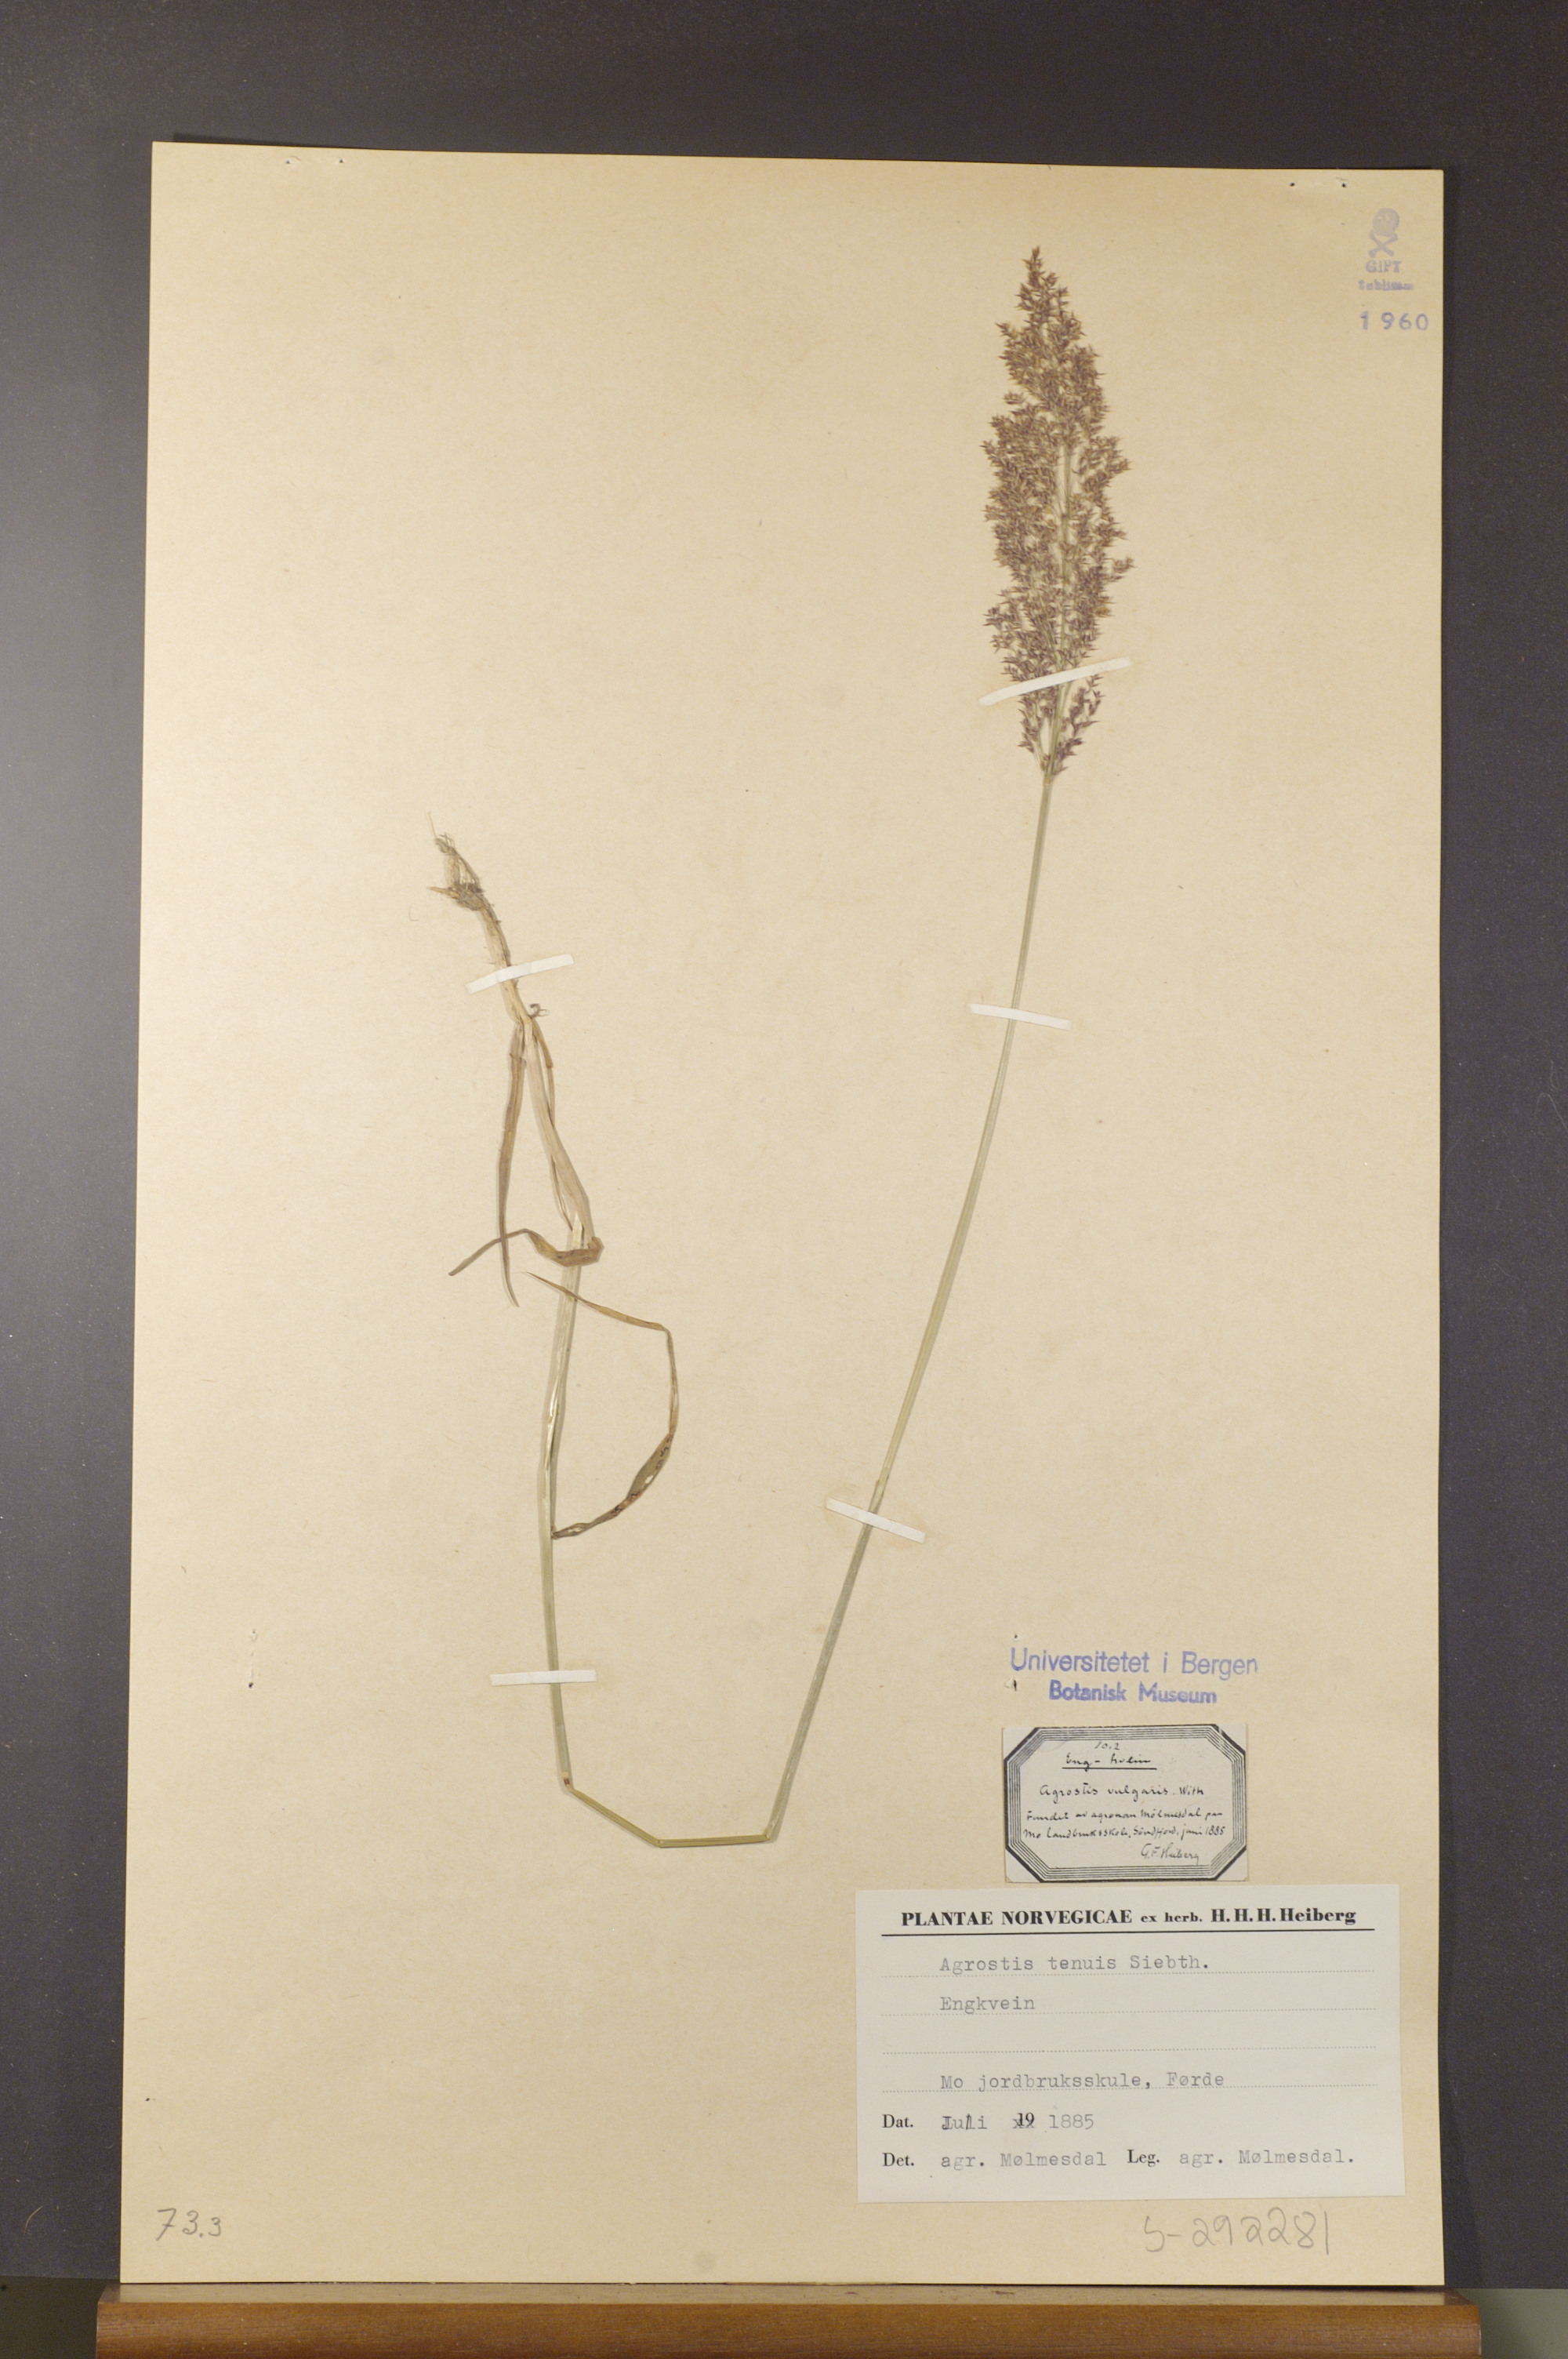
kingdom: Plantae
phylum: Tracheophyta
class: Liliopsida
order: Poales
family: Poaceae
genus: Agrostis
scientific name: Agrostis capillaris
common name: Colonial bentgrass
